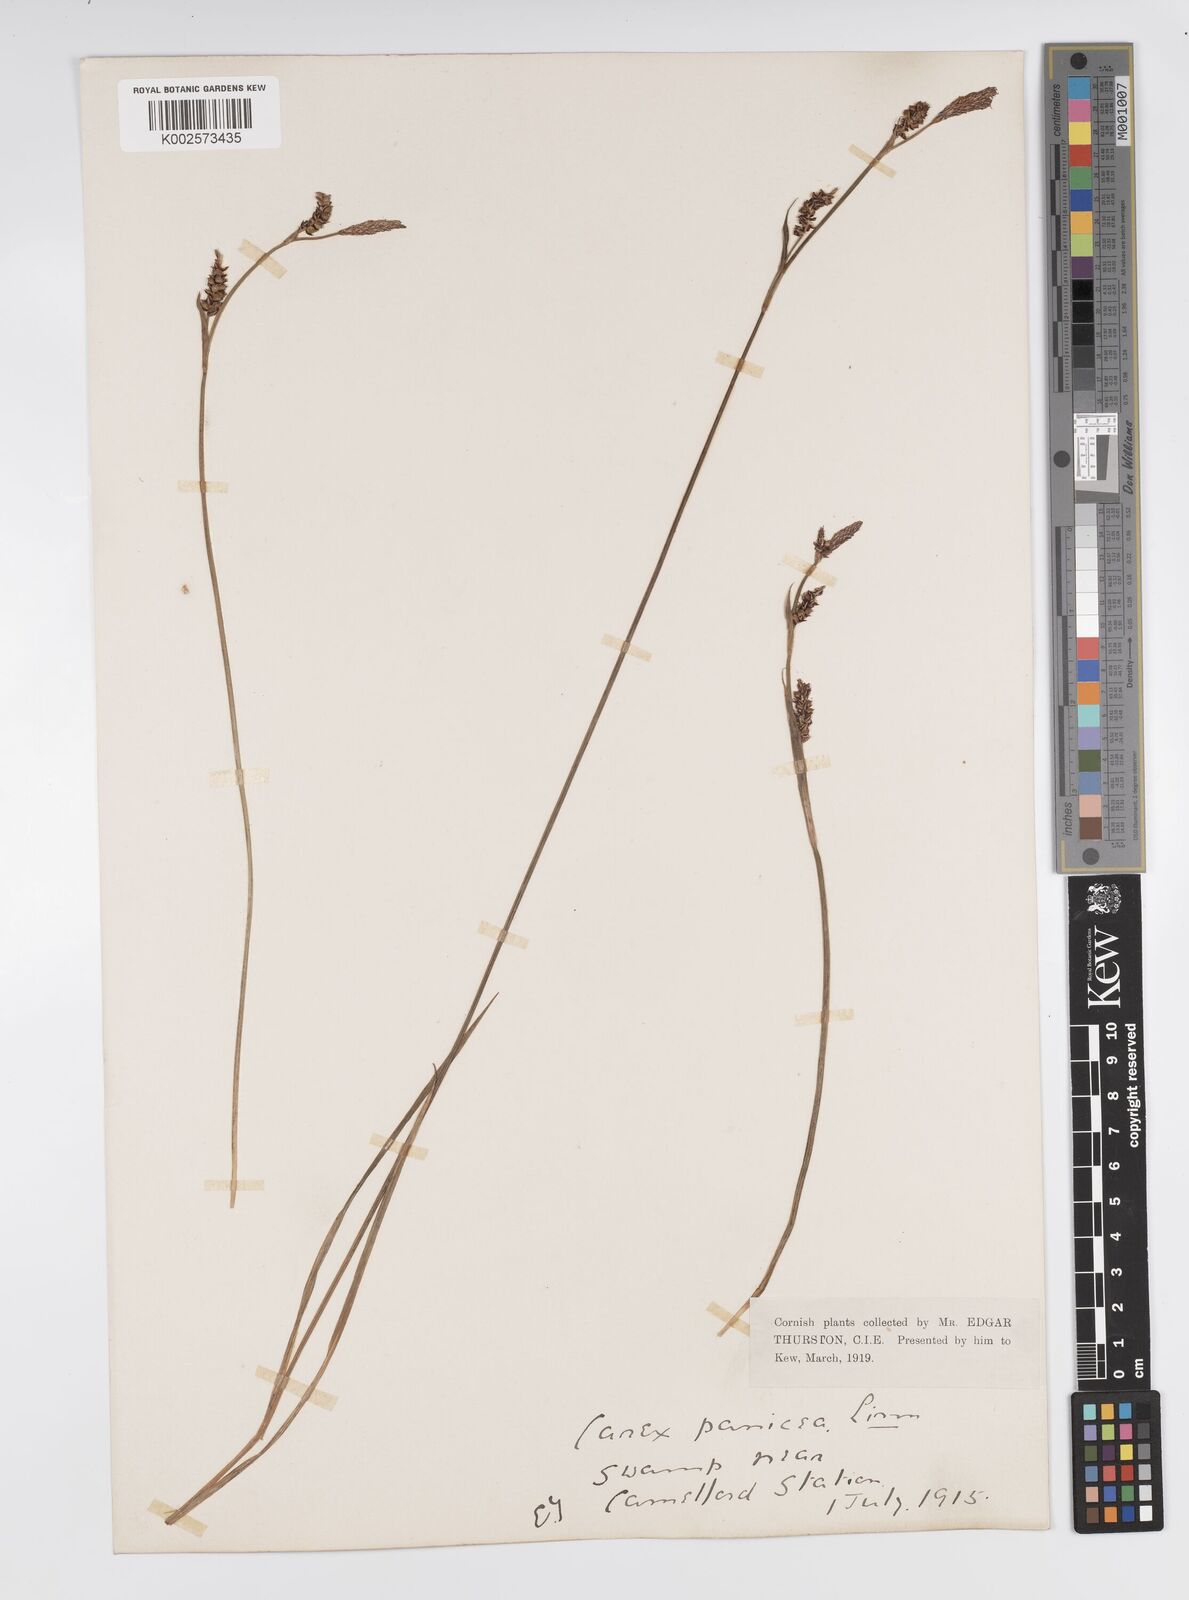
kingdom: Plantae
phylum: Tracheophyta
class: Liliopsida
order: Poales
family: Cyperaceae
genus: Carex
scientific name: Carex panicea
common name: Carnation sedge
